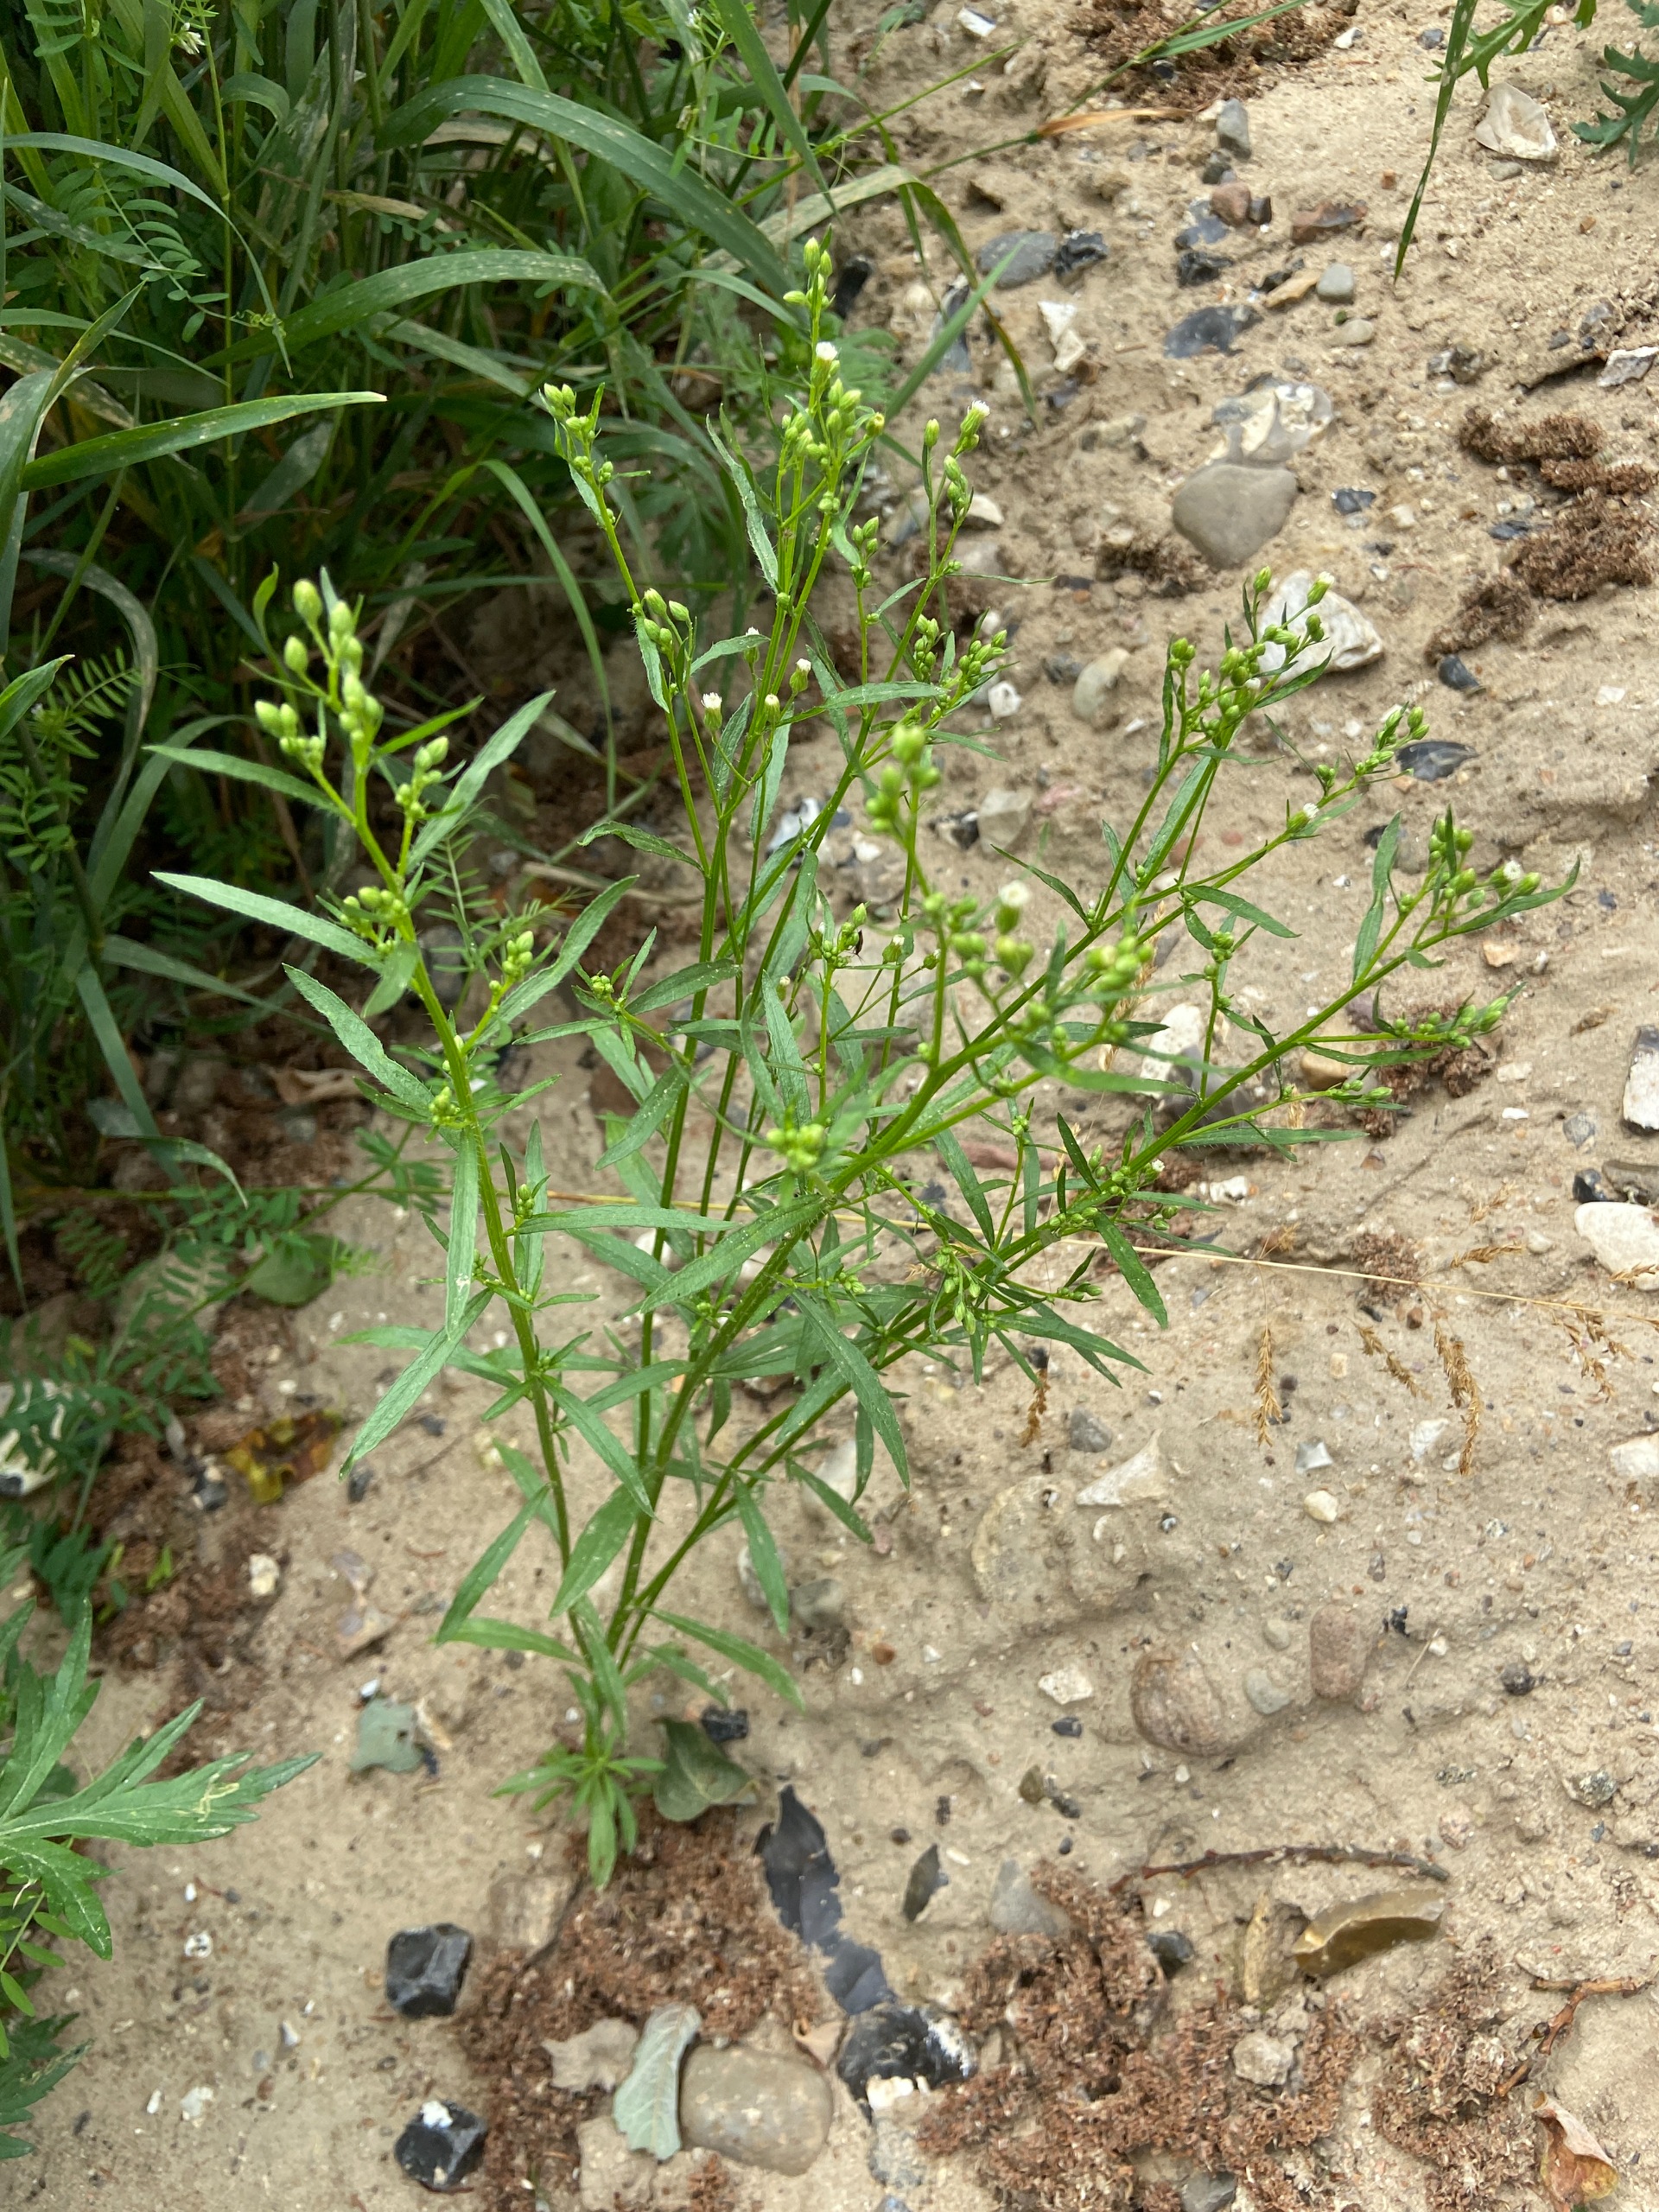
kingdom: Plantae
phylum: Tracheophyta
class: Magnoliopsida
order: Asterales
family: Asteraceae
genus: Erigeron
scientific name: Erigeron canadensis
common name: Kanadisk bakkestjerne
